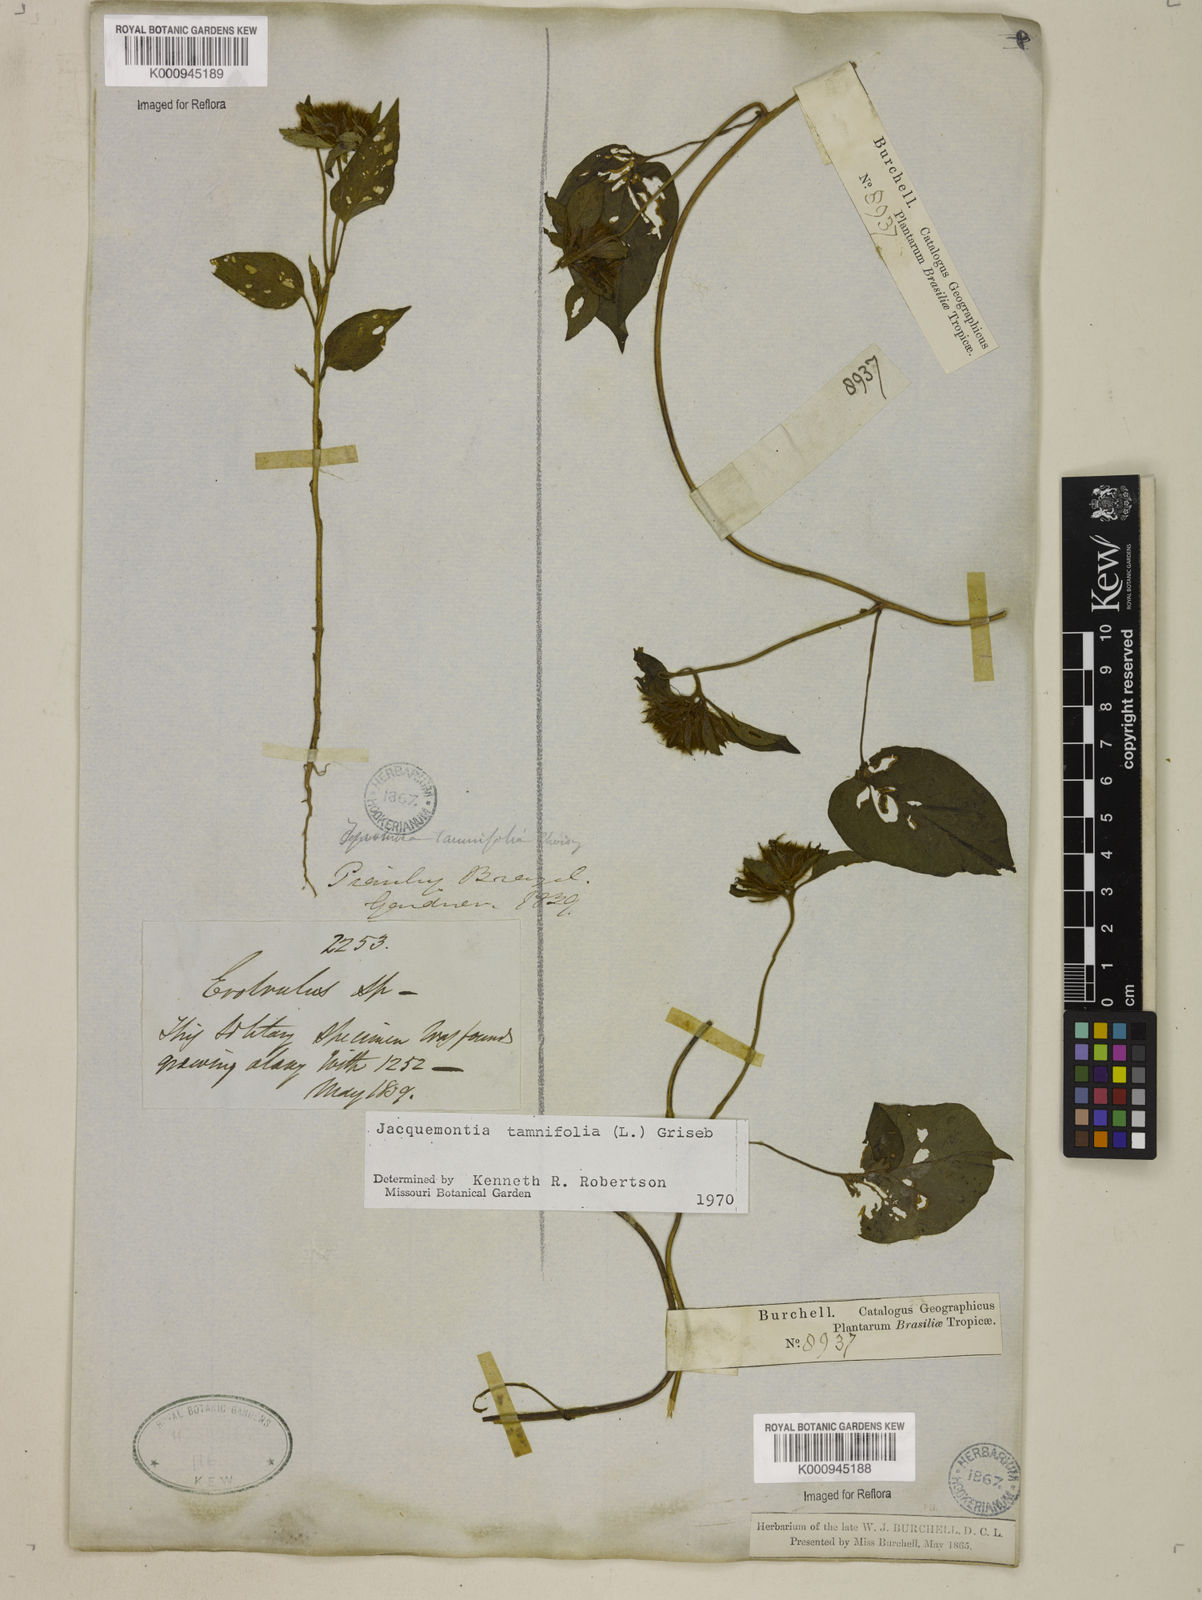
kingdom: Plantae
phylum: Tracheophyta
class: Magnoliopsida
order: Solanales
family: Convolvulaceae
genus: Jacquemontia
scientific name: Jacquemontia tamnifolia
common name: Hairy clustervine
